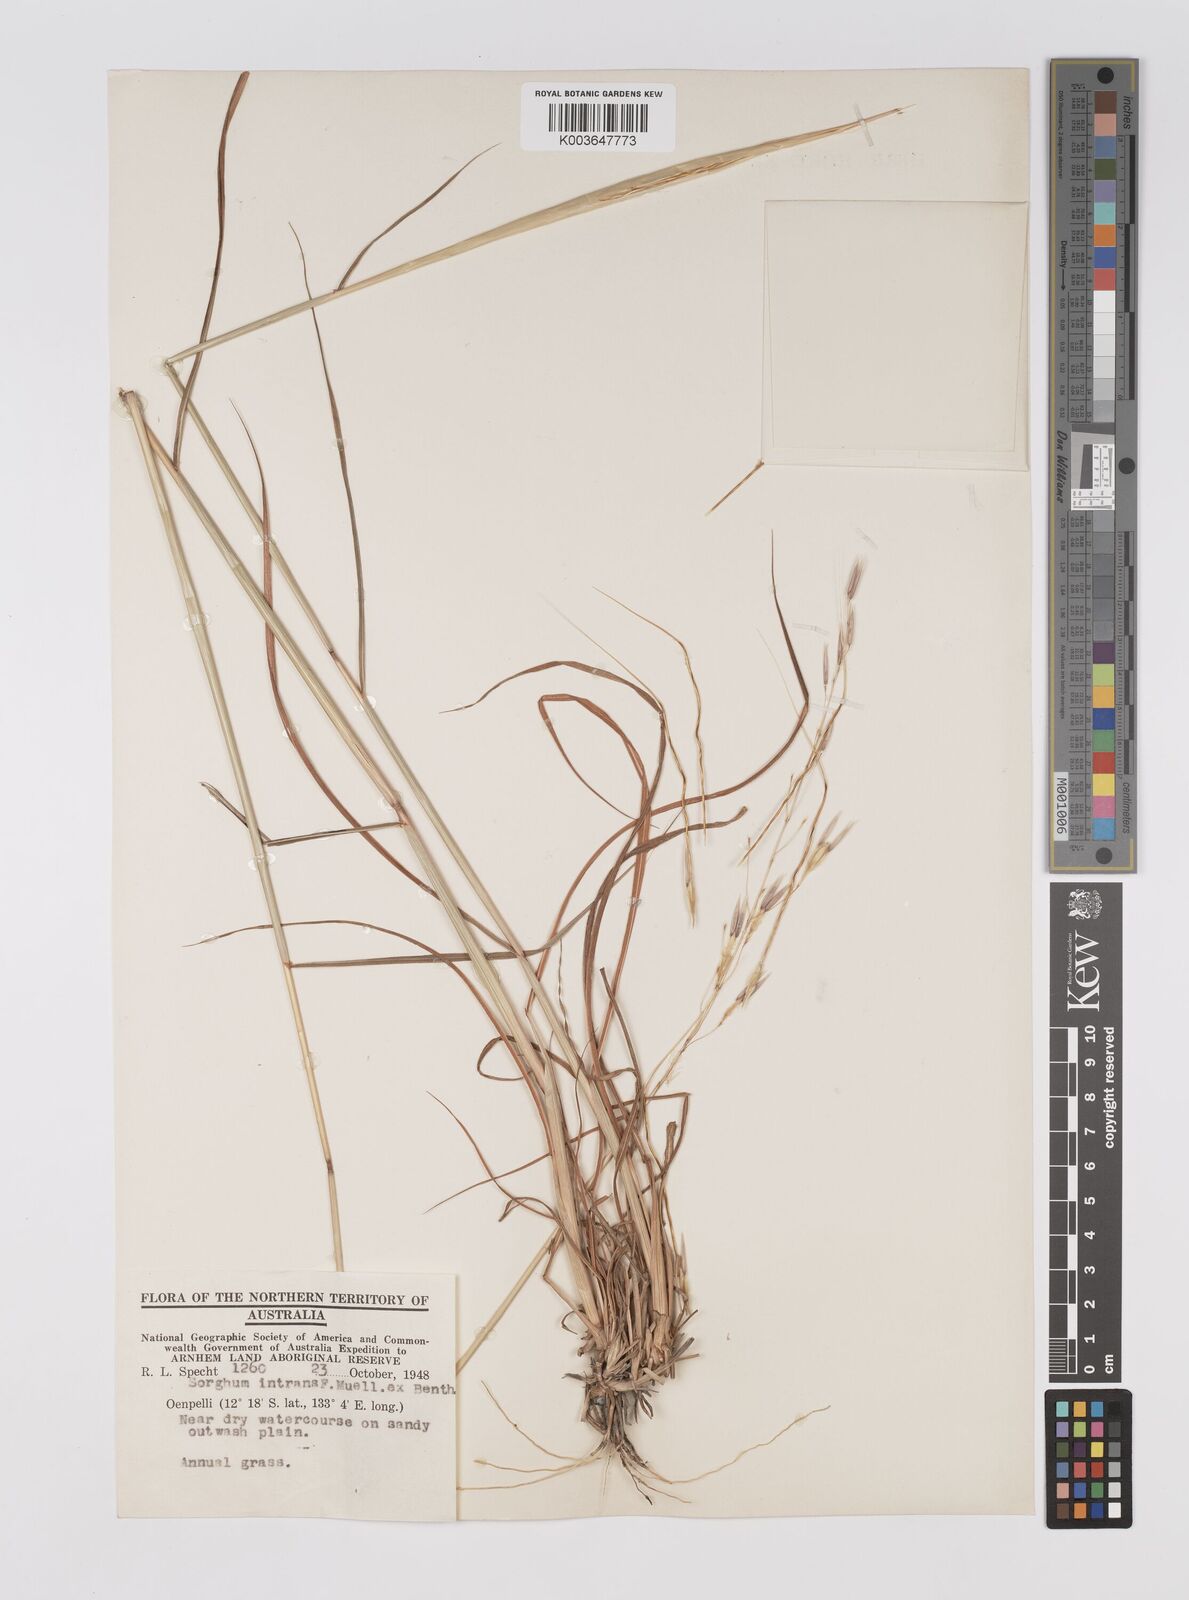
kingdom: Plantae
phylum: Tracheophyta
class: Liliopsida
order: Poales
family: Poaceae
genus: Sarga
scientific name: Sarga intrans
